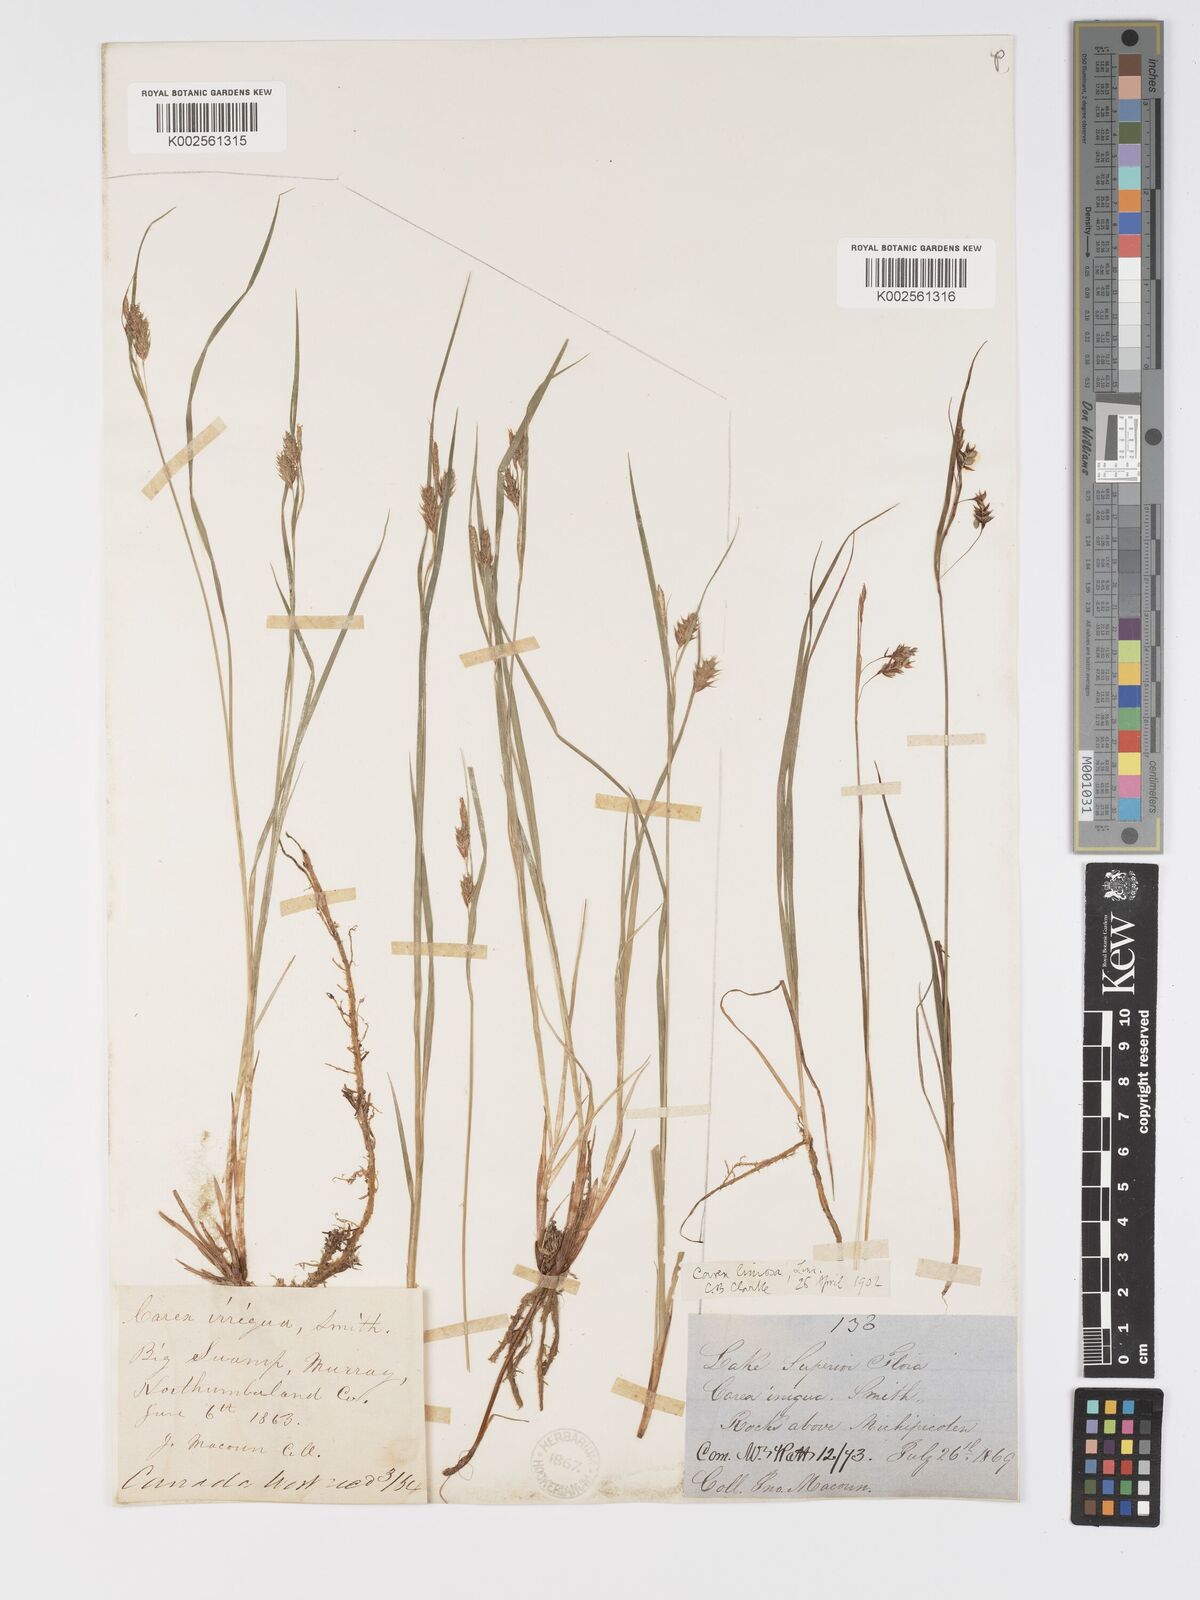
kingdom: Plantae
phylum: Tracheophyta
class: Liliopsida
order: Poales
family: Cyperaceae
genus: Carex
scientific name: Carex magellanica
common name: Bog sedge
